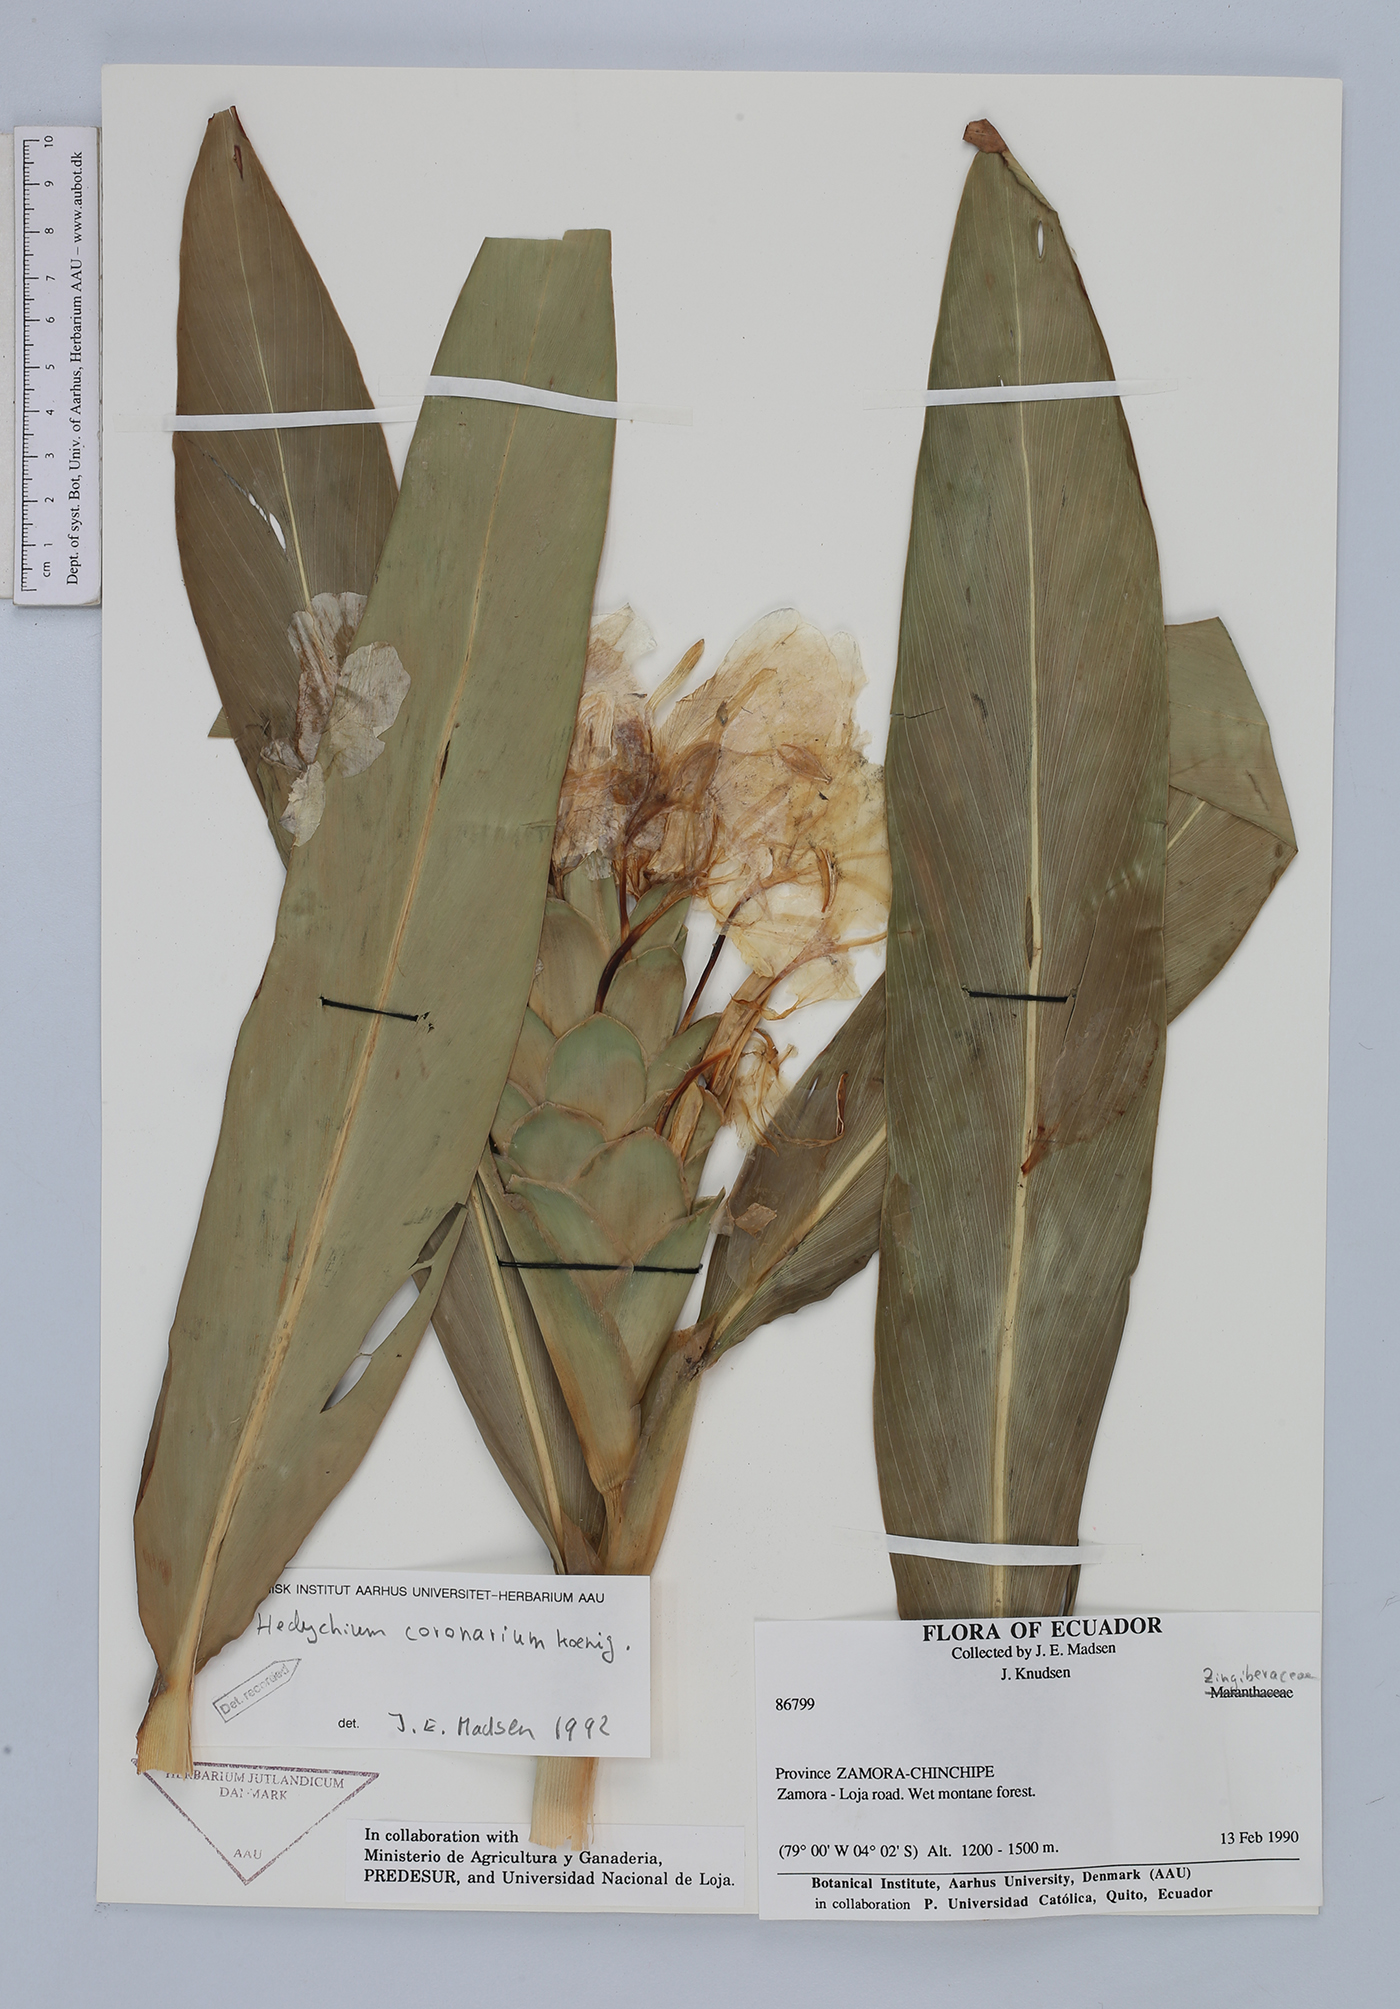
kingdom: Plantae
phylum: Tracheophyta
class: Liliopsida
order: Zingiberales
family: Zingiberaceae
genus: Hedychium
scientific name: Hedychium coronarium
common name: White garland-lily
